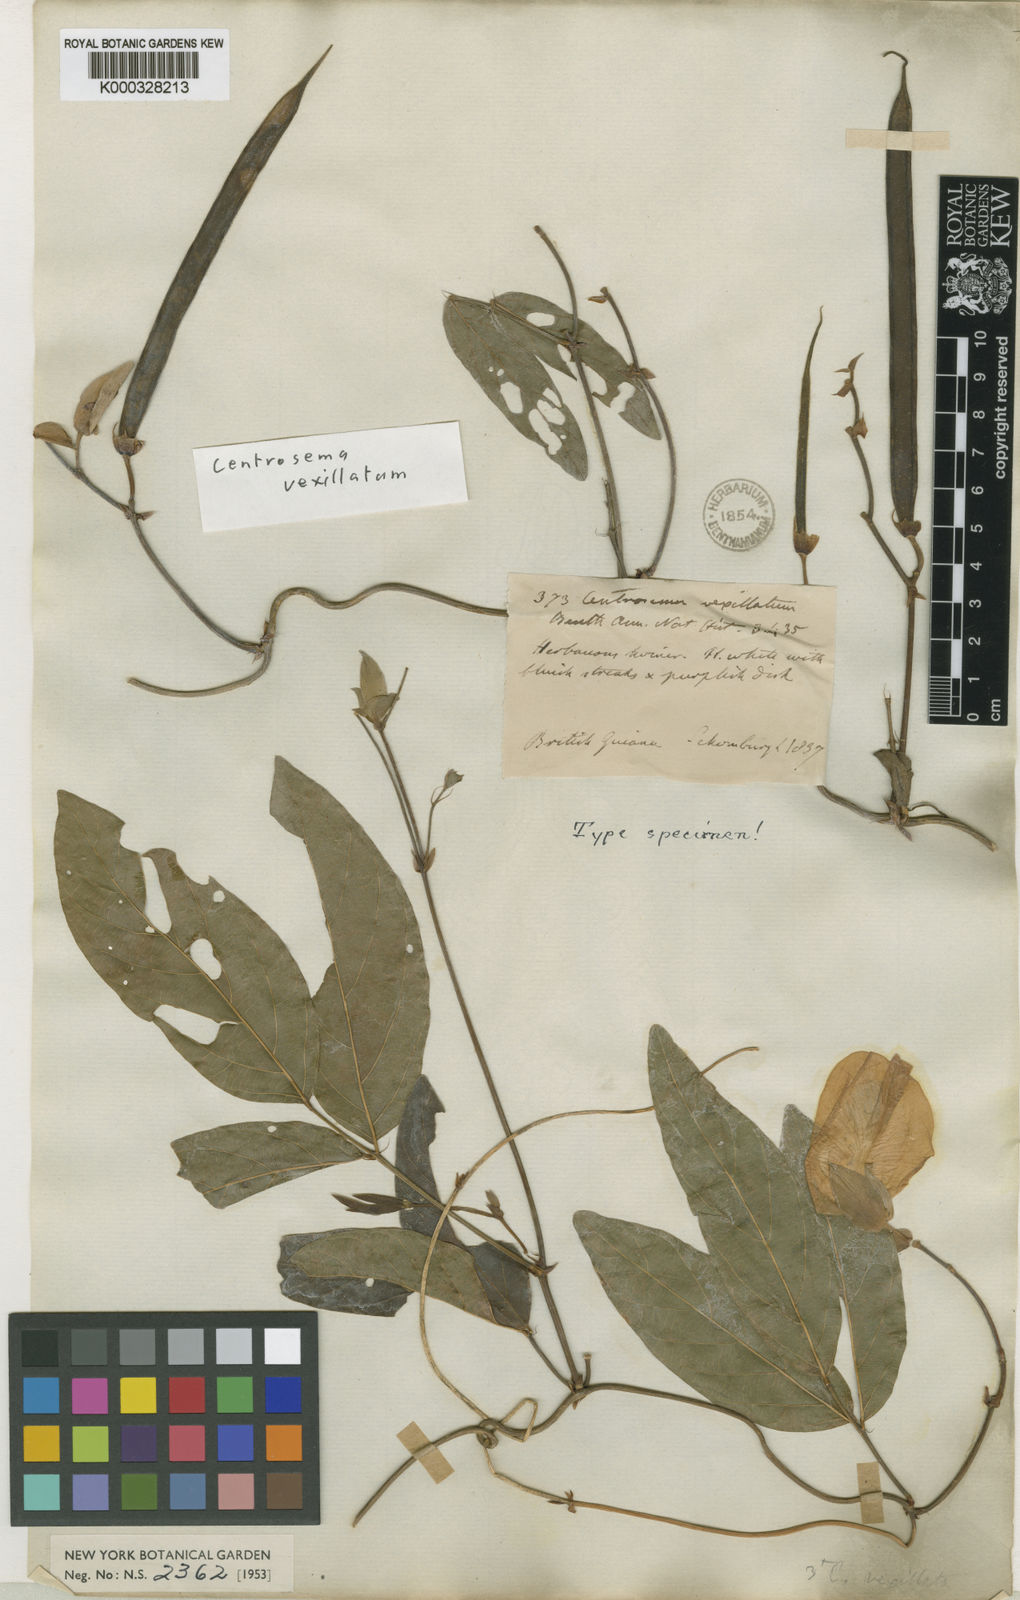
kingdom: Plantae
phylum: Tracheophyta
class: Magnoliopsida
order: Fabales
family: Fabaceae
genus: Centrosema
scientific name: Centrosema vexillatum
